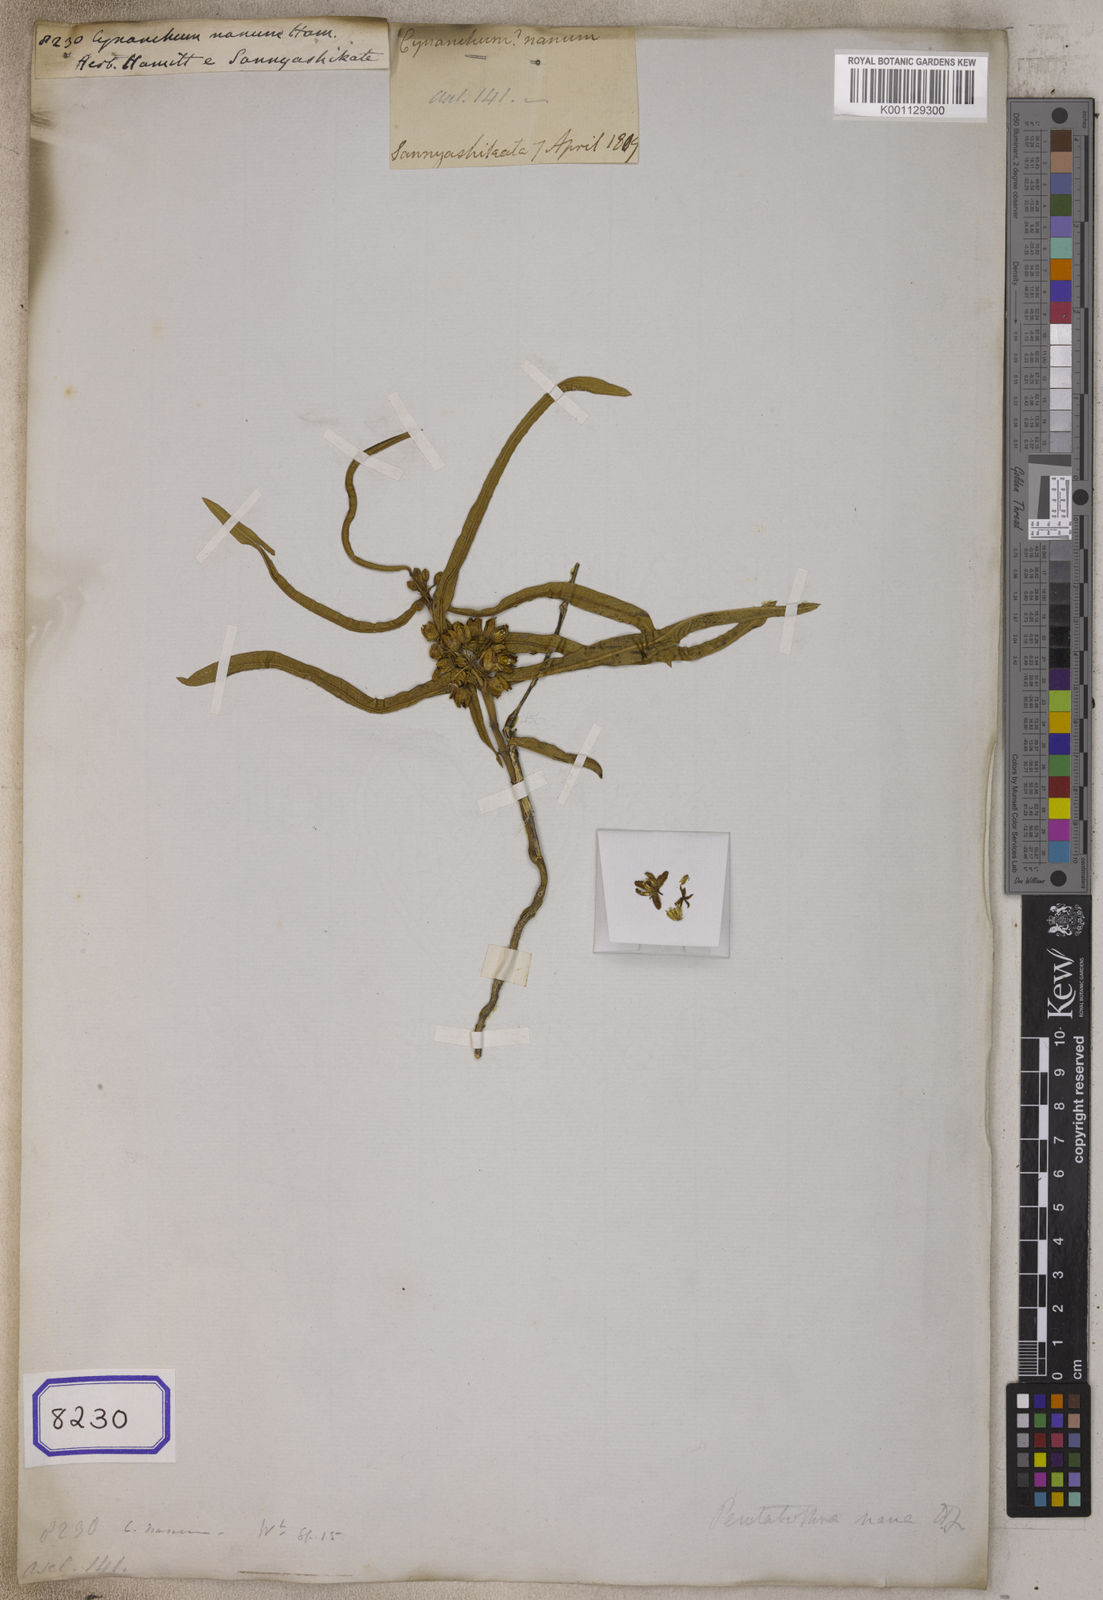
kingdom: Plantae
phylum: Tracheophyta
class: Magnoliopsida
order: Gentianales
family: Apocynaceae
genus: Vincetoxicum
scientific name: Vincetoxicum nanum
